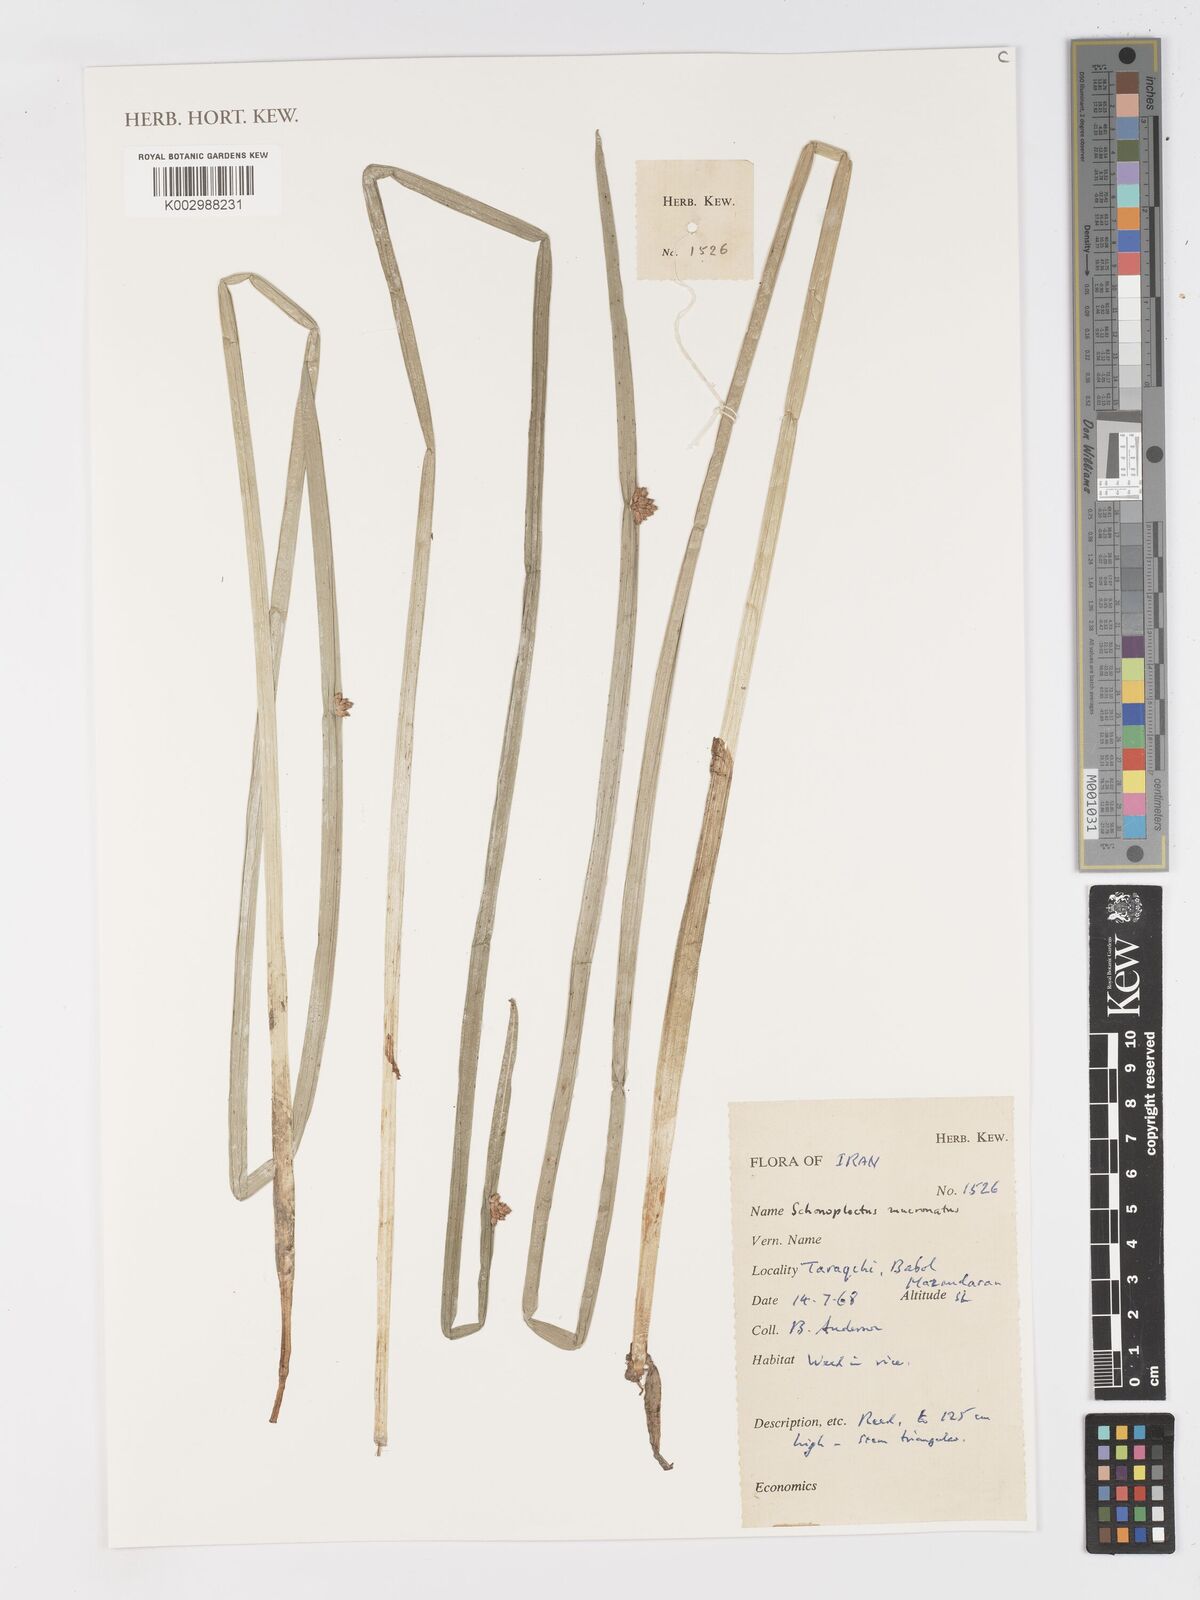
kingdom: Plantae
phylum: Tracheophyta
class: Liliopsida
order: Poales
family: Cyperaceae
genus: Schoenoplectiella
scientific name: Schoenoplectiella mucronata
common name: Bog bulrush
